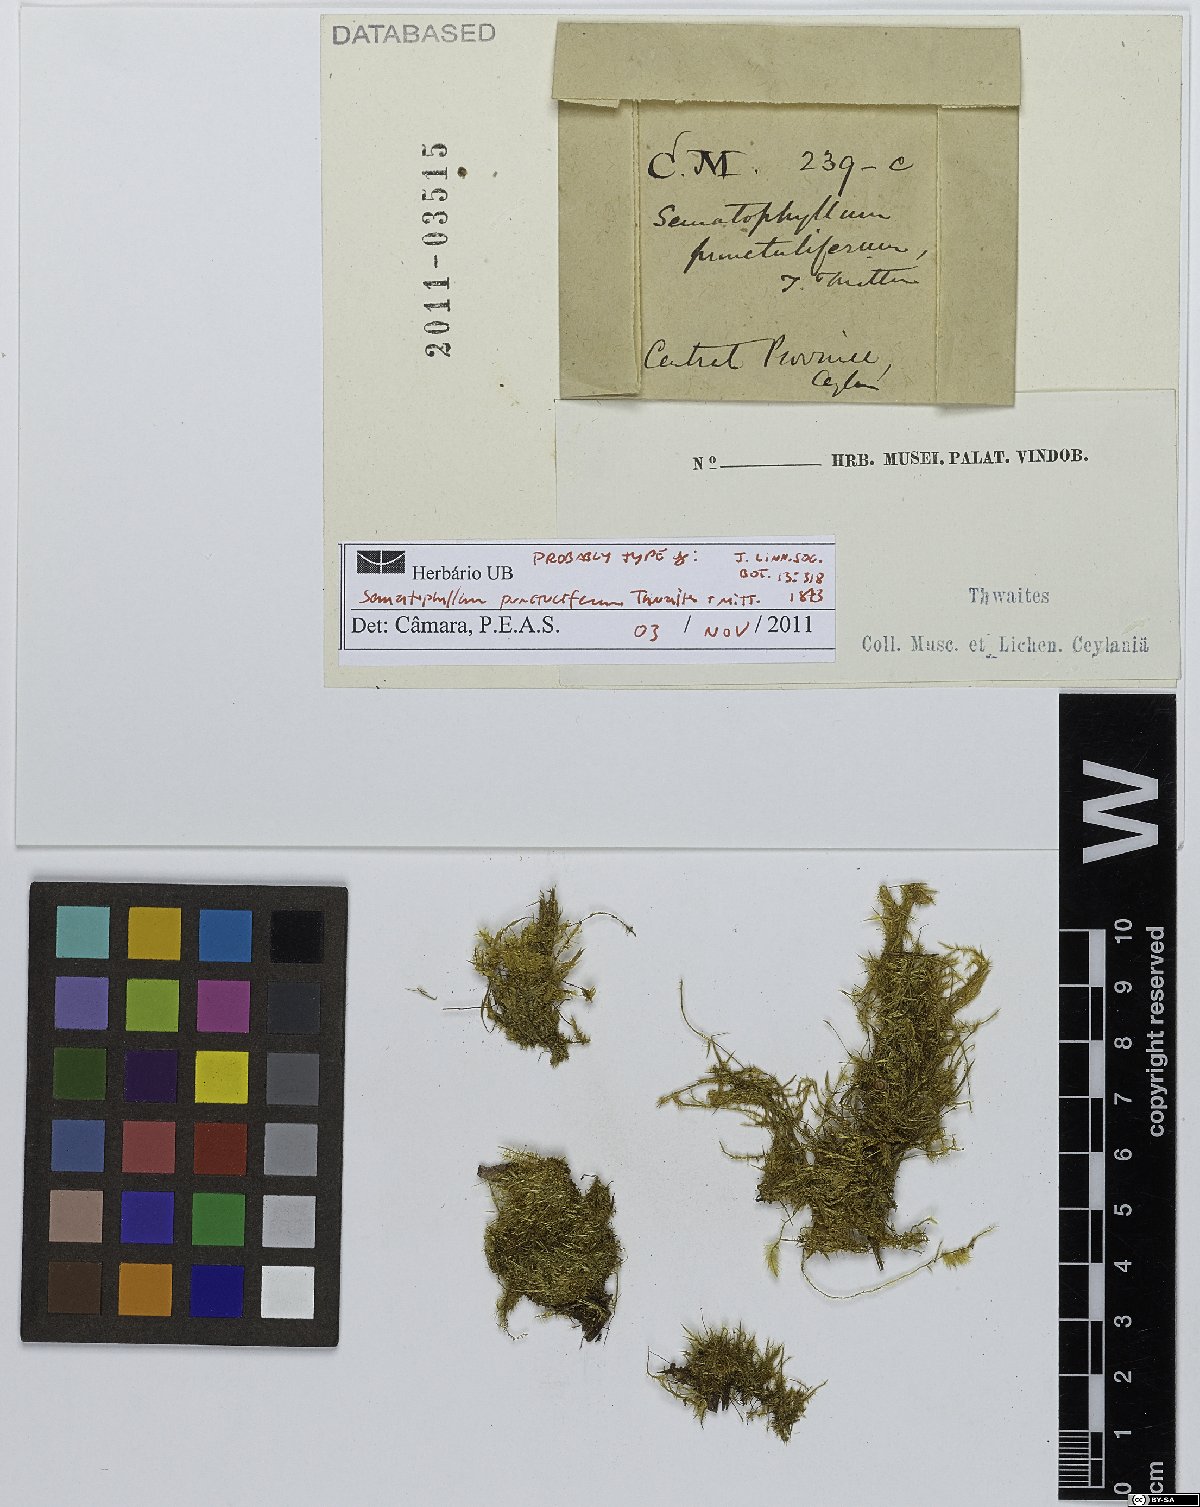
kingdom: Plantae
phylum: Bryophyta
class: Bryopsida
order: Hypnales
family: Sematophyllaceae
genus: Acroporium
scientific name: Acroporium lamprophyllum
